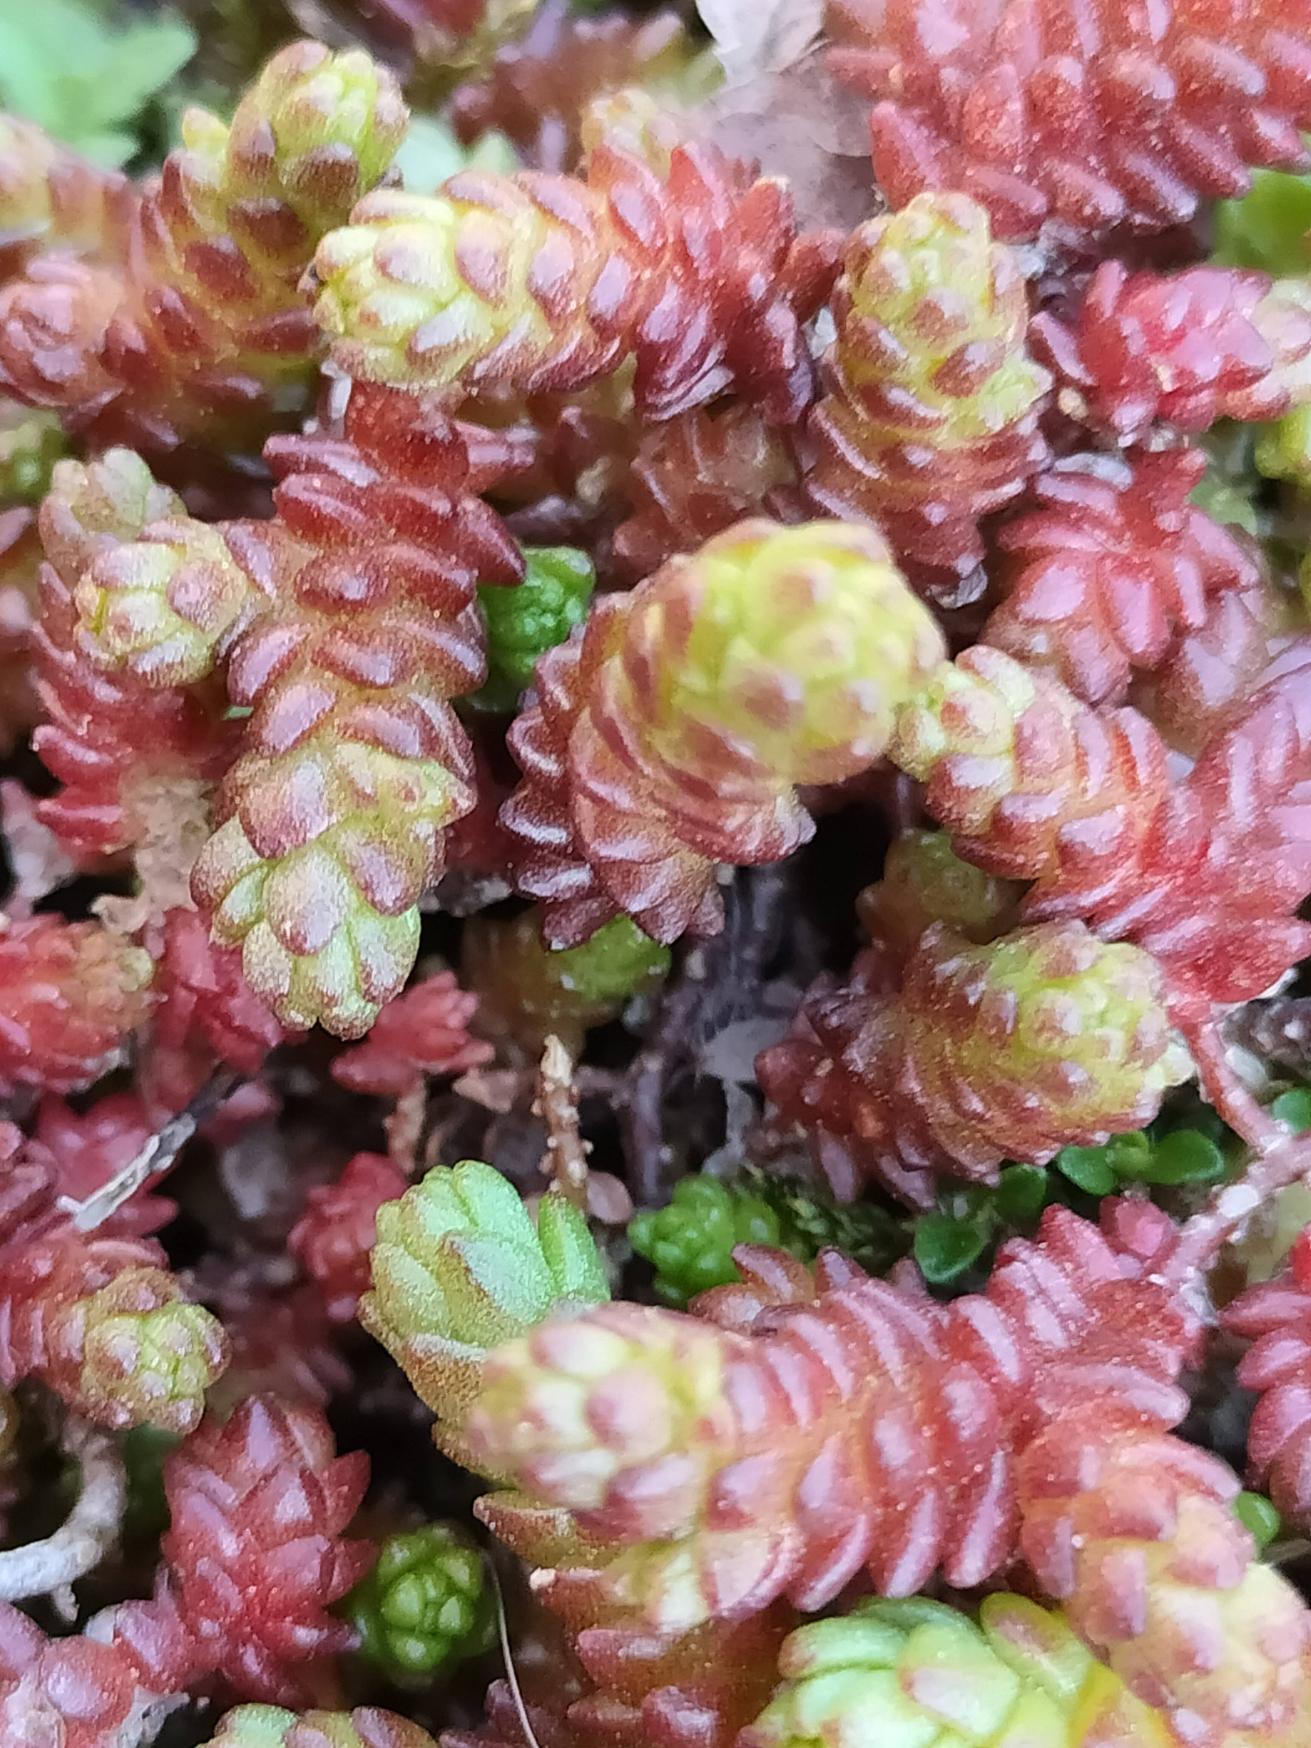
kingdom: Plantae
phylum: Tracheophyta
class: Magnoliopsida
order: Saxifragales
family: Crassulaceae
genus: Sedum
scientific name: Sedum acre
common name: Bidende stenurt
